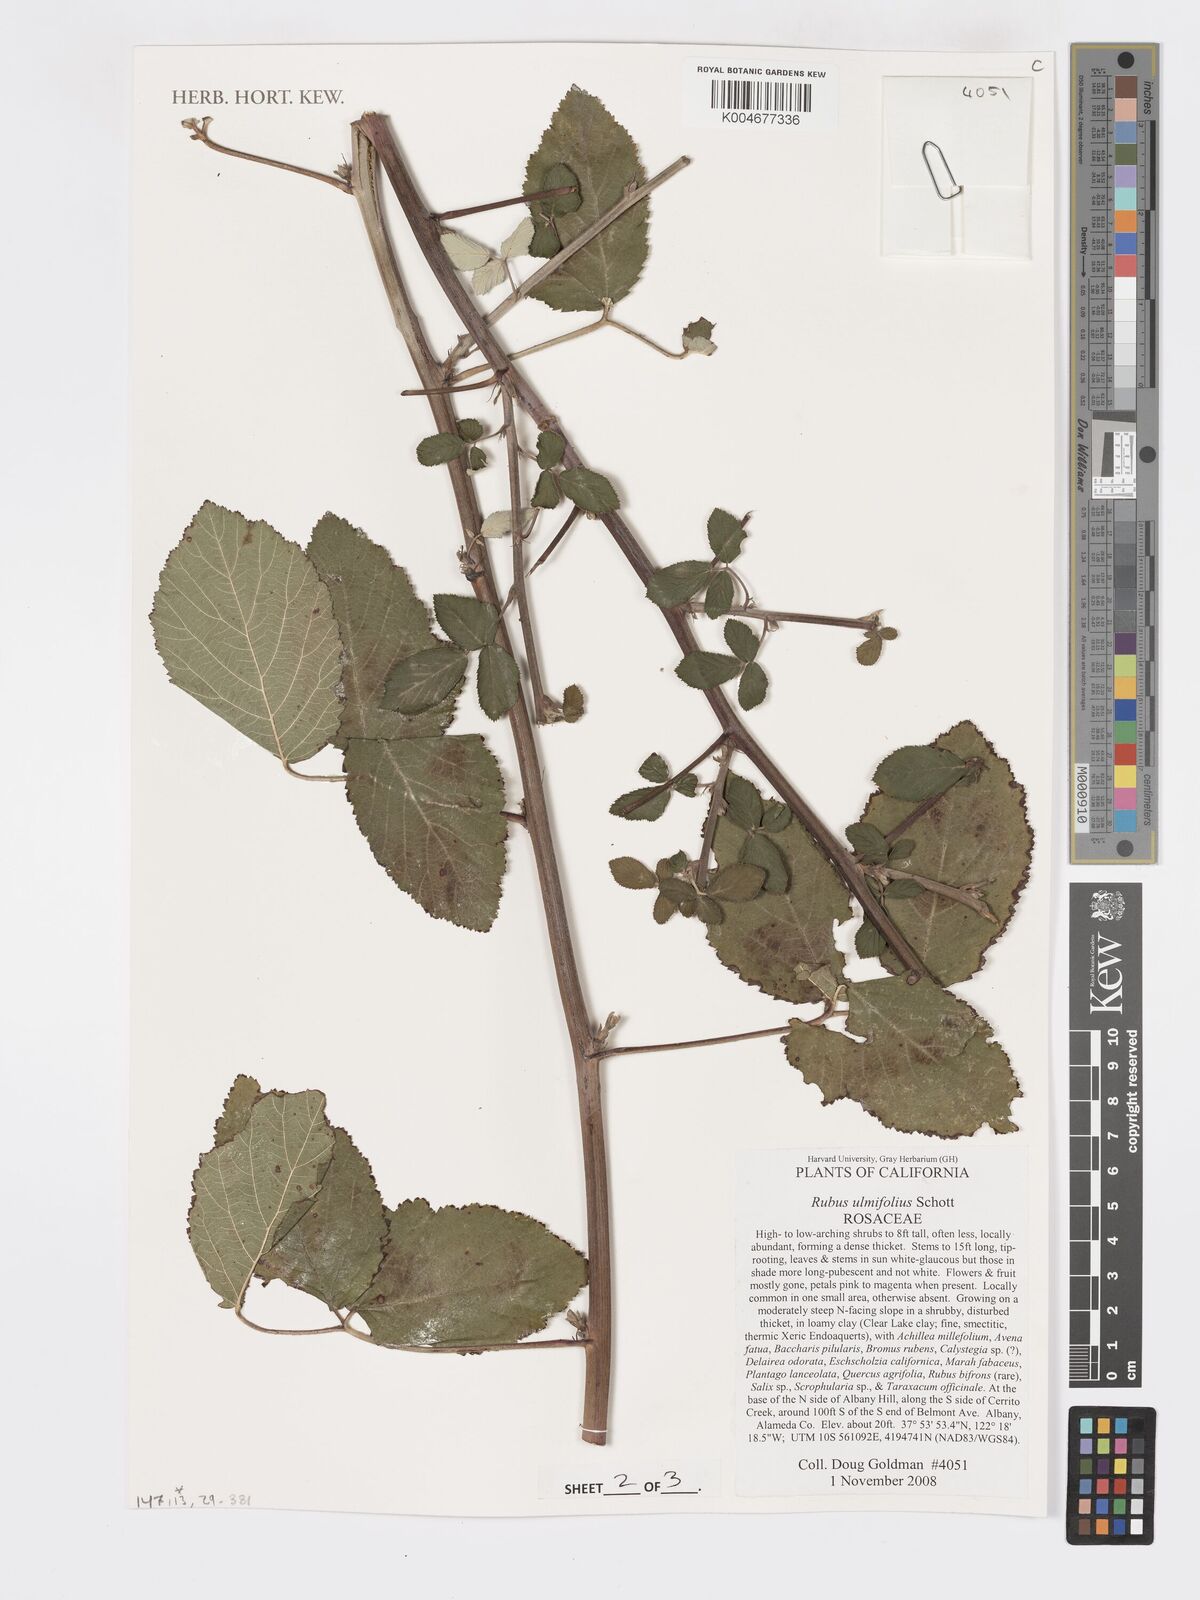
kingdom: Plantae
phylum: Tracheophyta
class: Magnoliopsida
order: Rosales
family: Rosaceae
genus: Rubus
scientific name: Rubus
